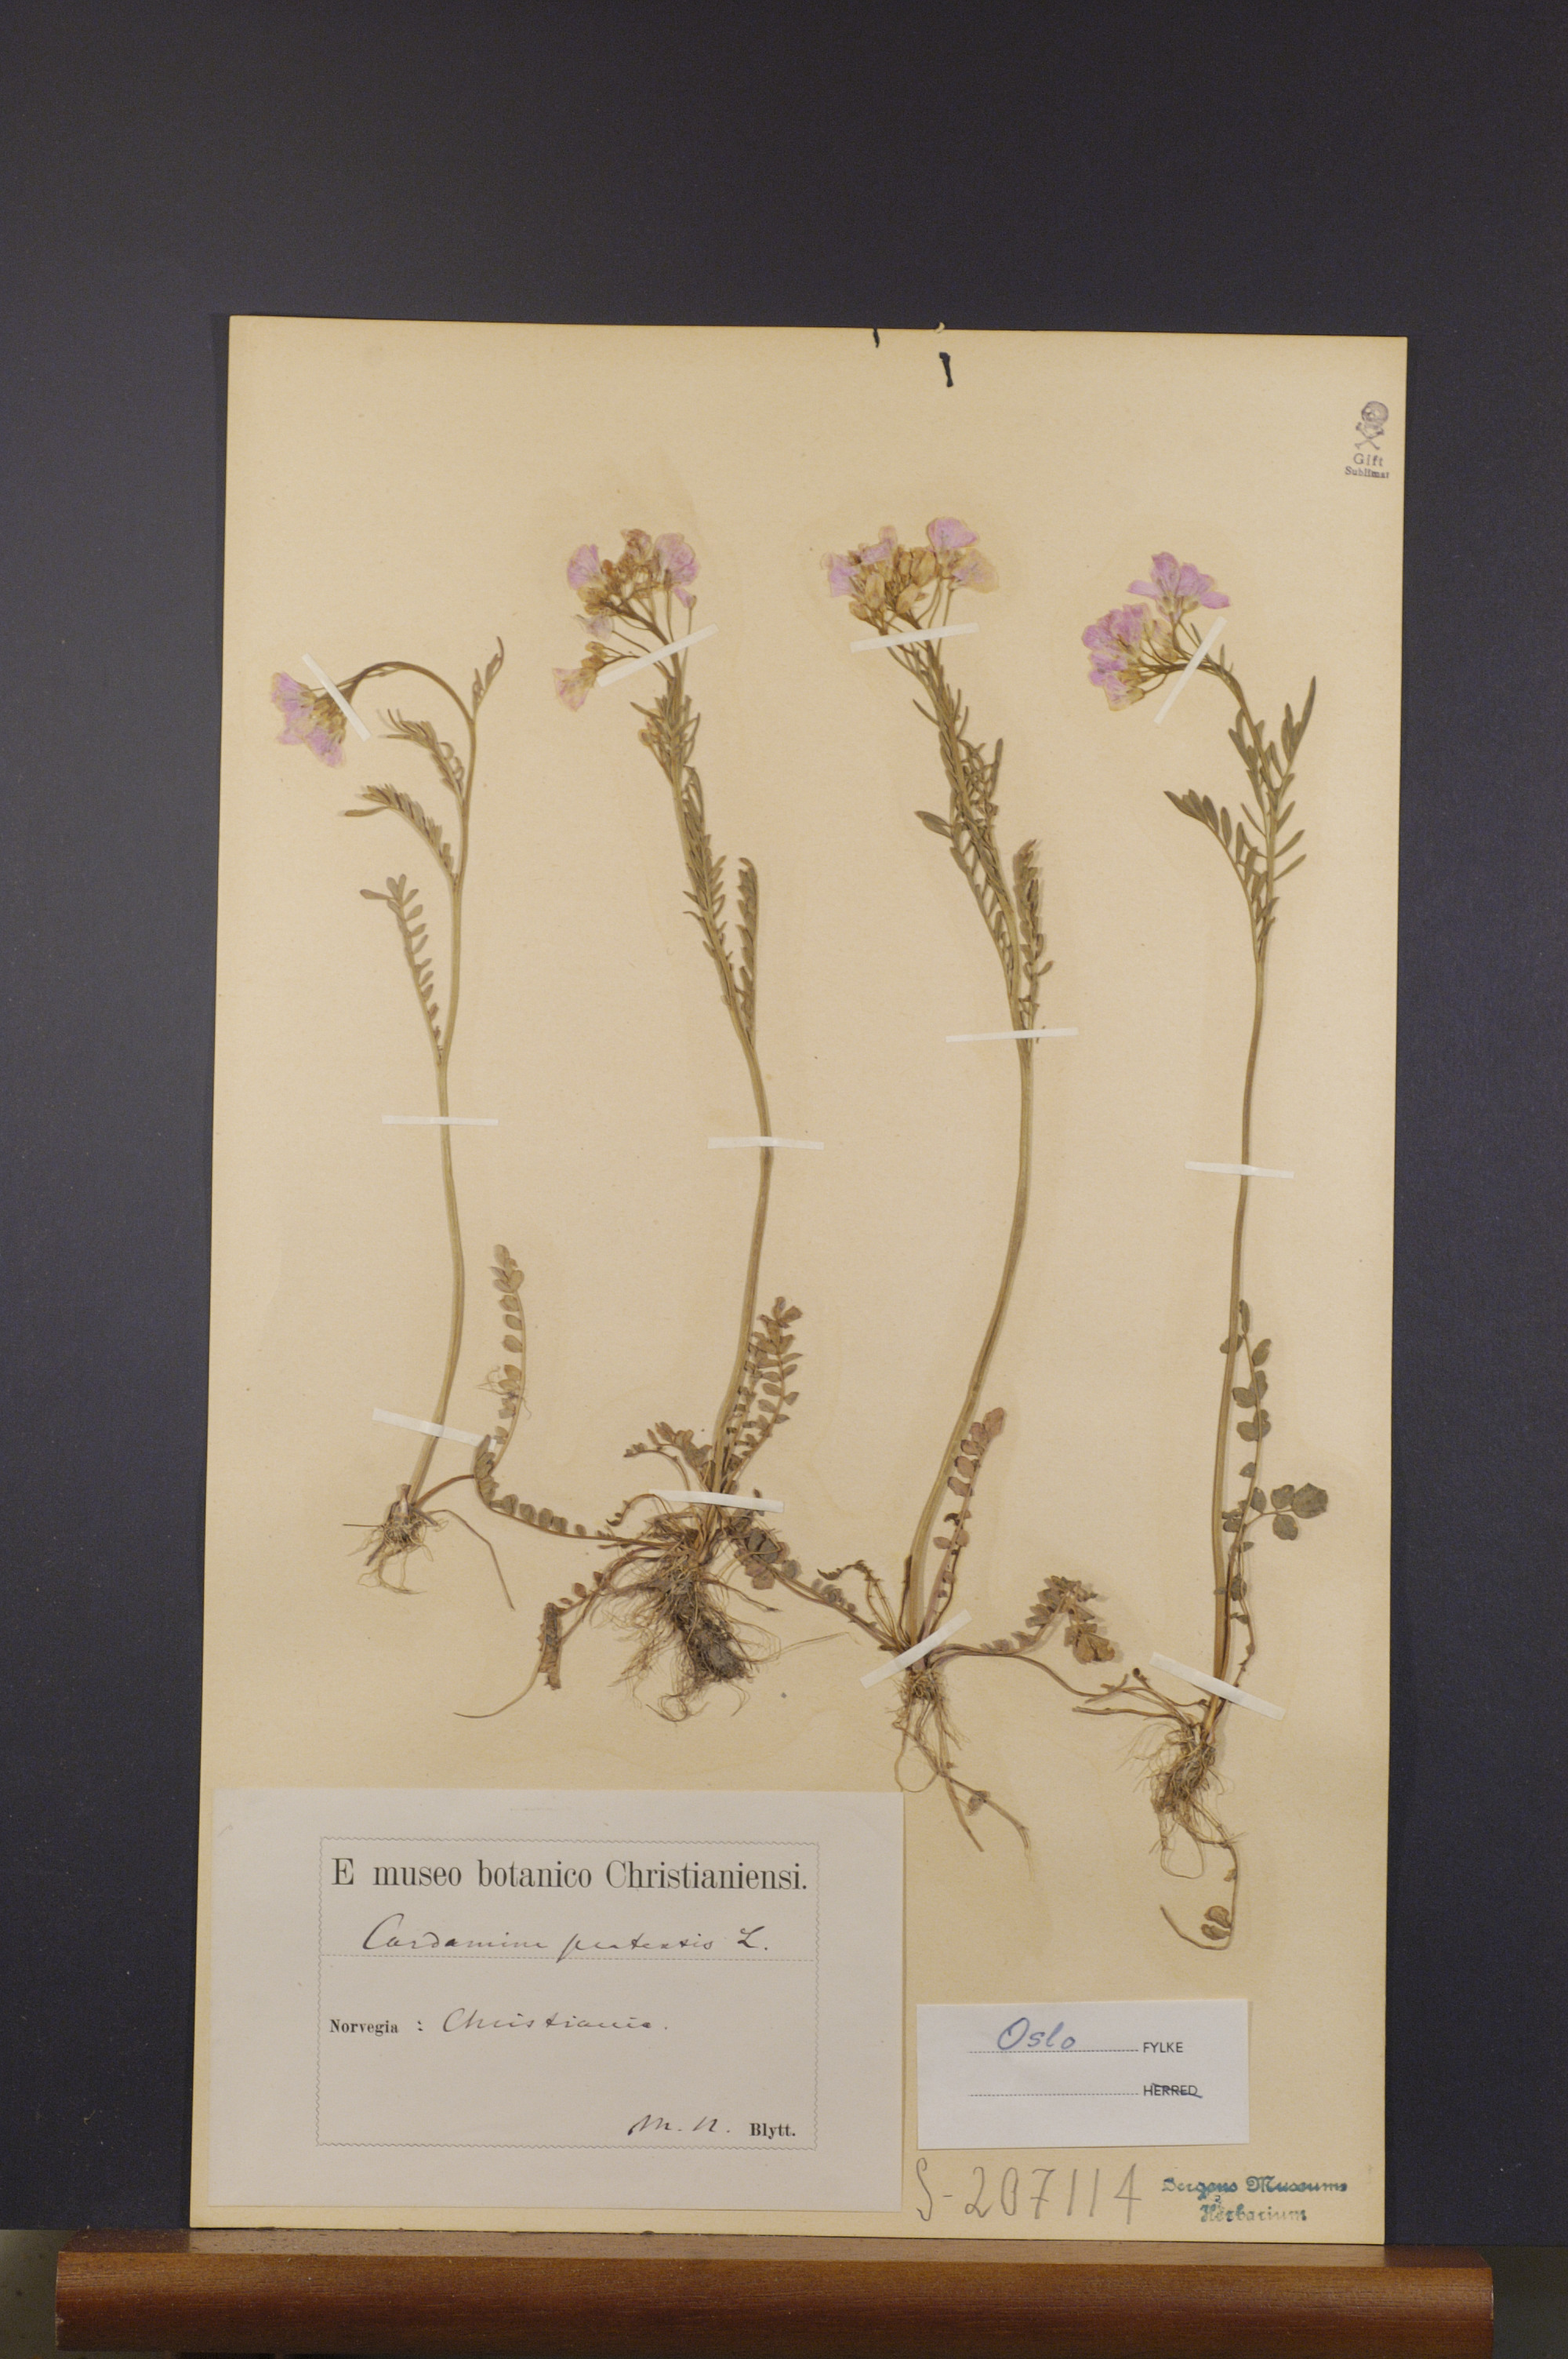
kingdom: Plantae
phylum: Tracheophyta
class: Magnoliopsida
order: Brassicales
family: Brassicaceae
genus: Cardamine
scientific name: Cardamine pratensis
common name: Cuckoo flower
